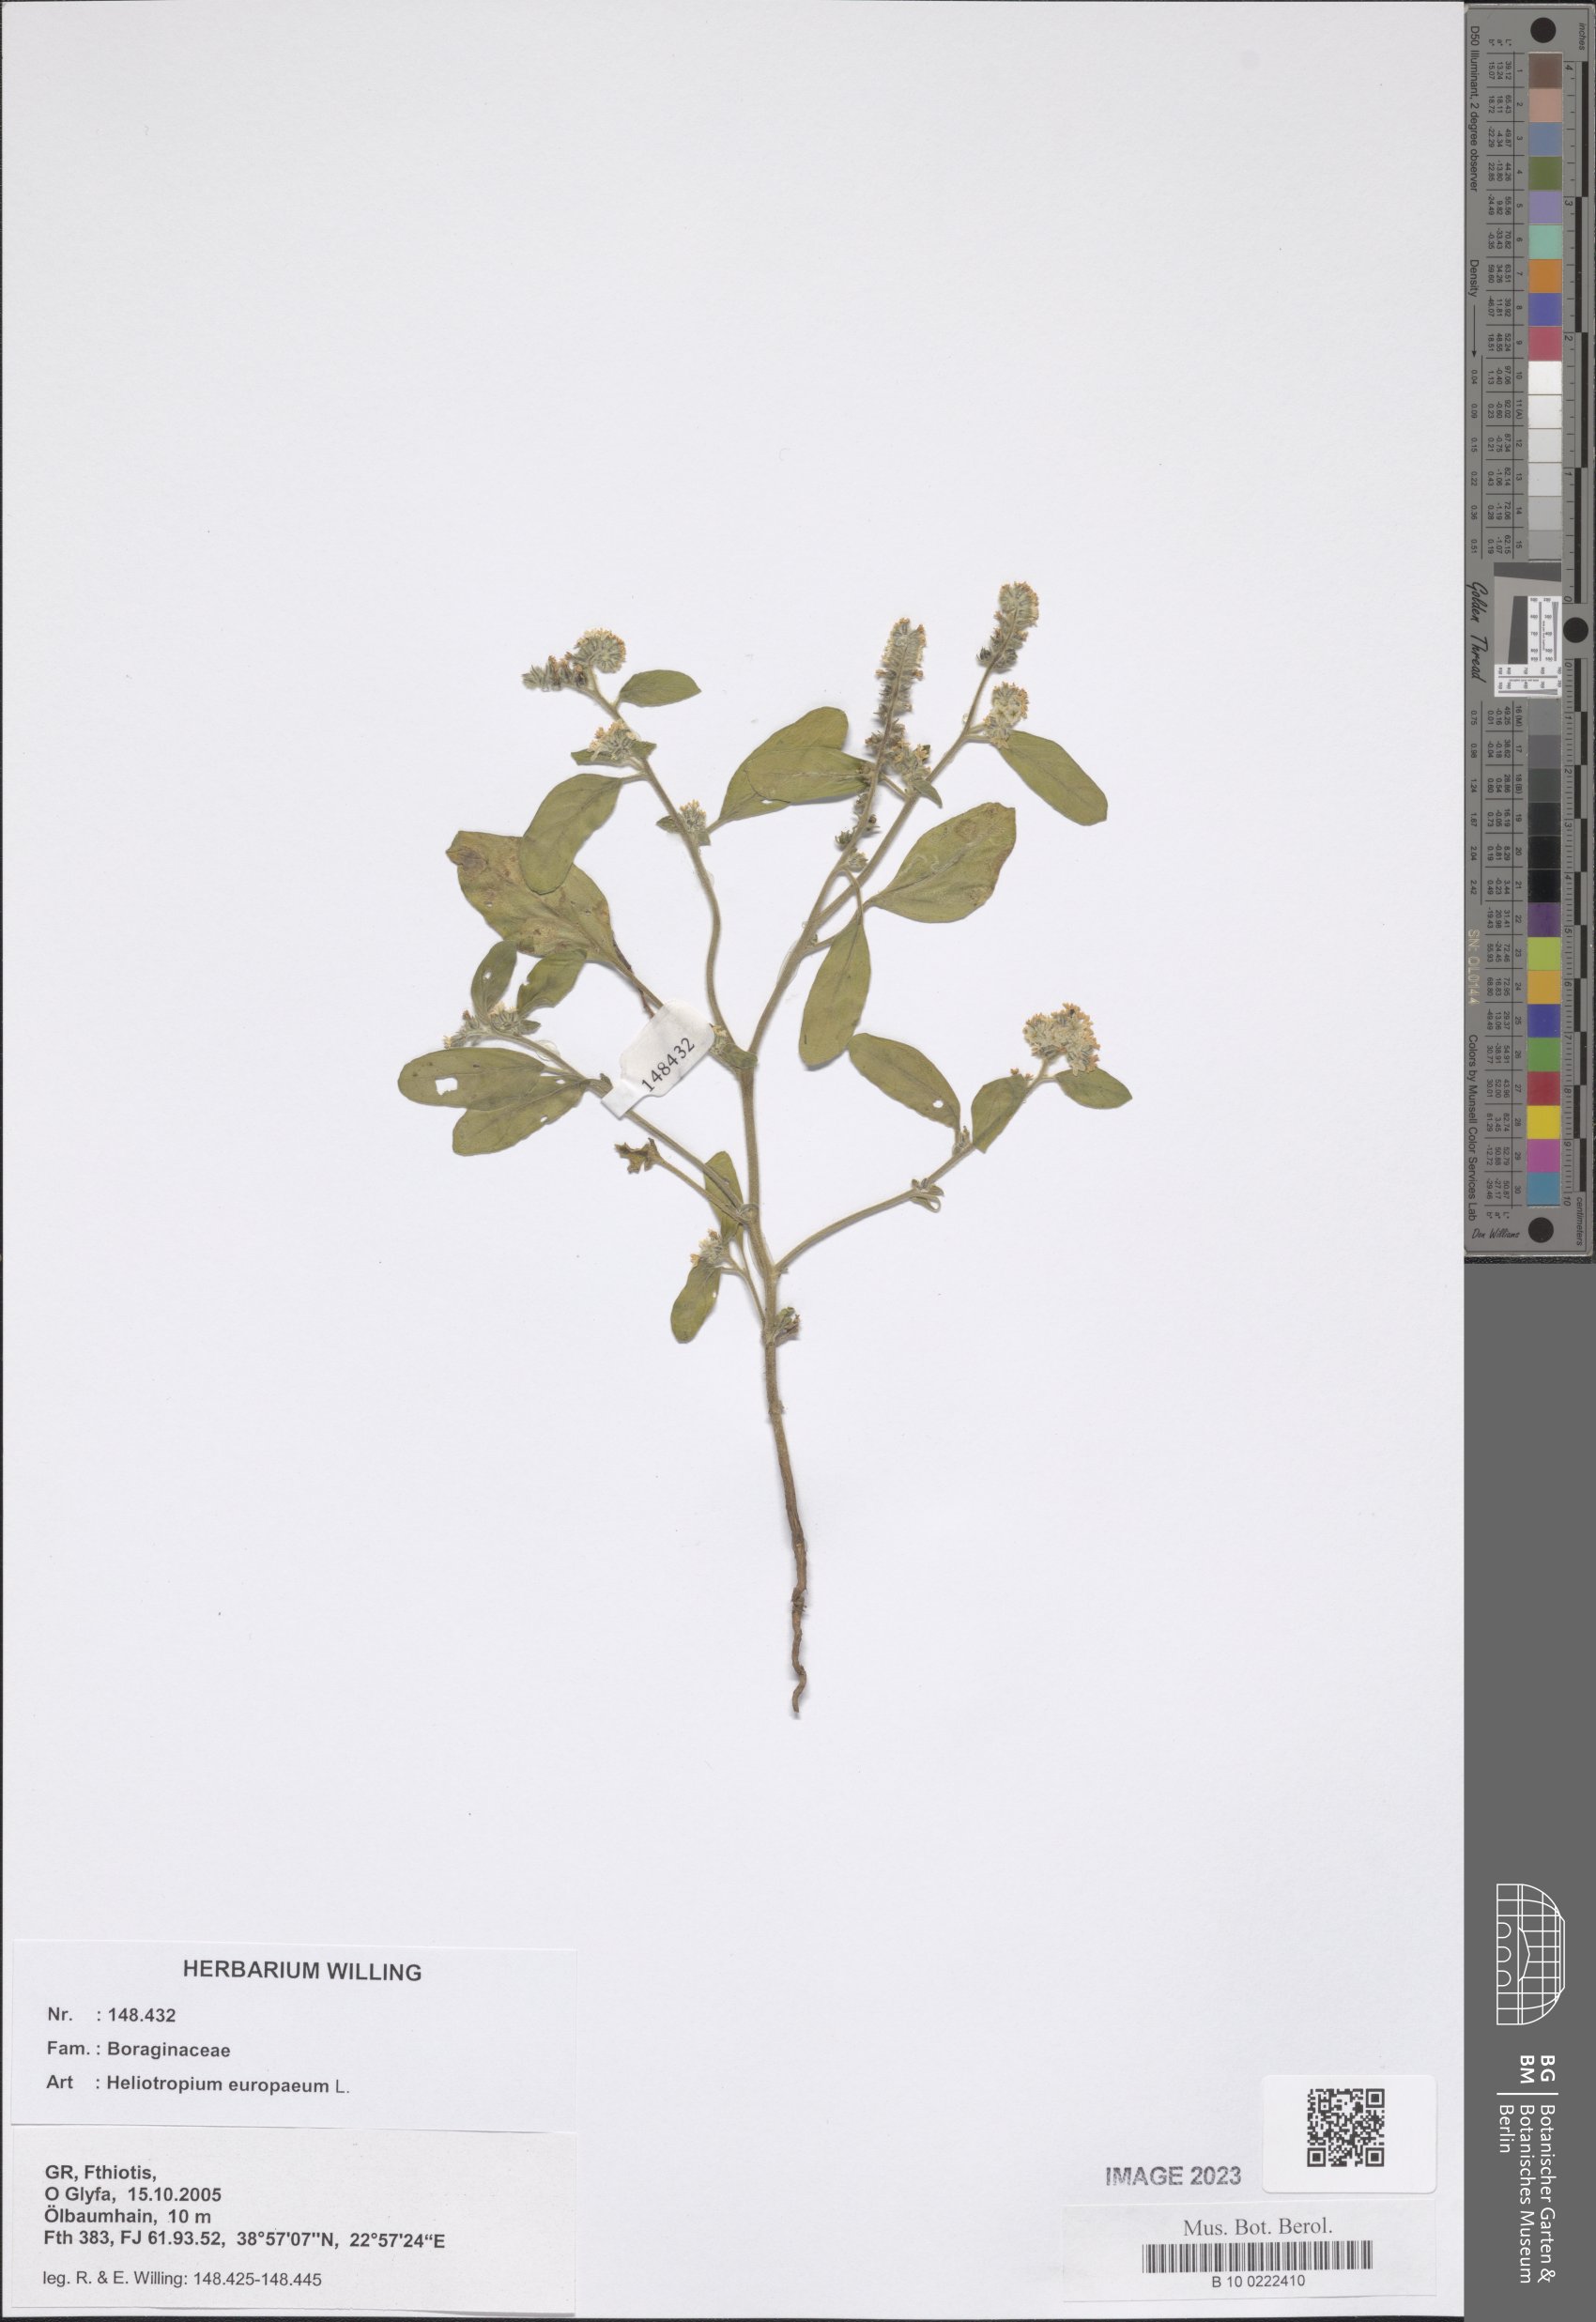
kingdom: Plantae
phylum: Tracheophyta
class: Magnoliopsida
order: Boraginales
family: Heliotropiaceae
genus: Heliotropium
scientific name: Heliotropium europaeum
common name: European heliotrope
